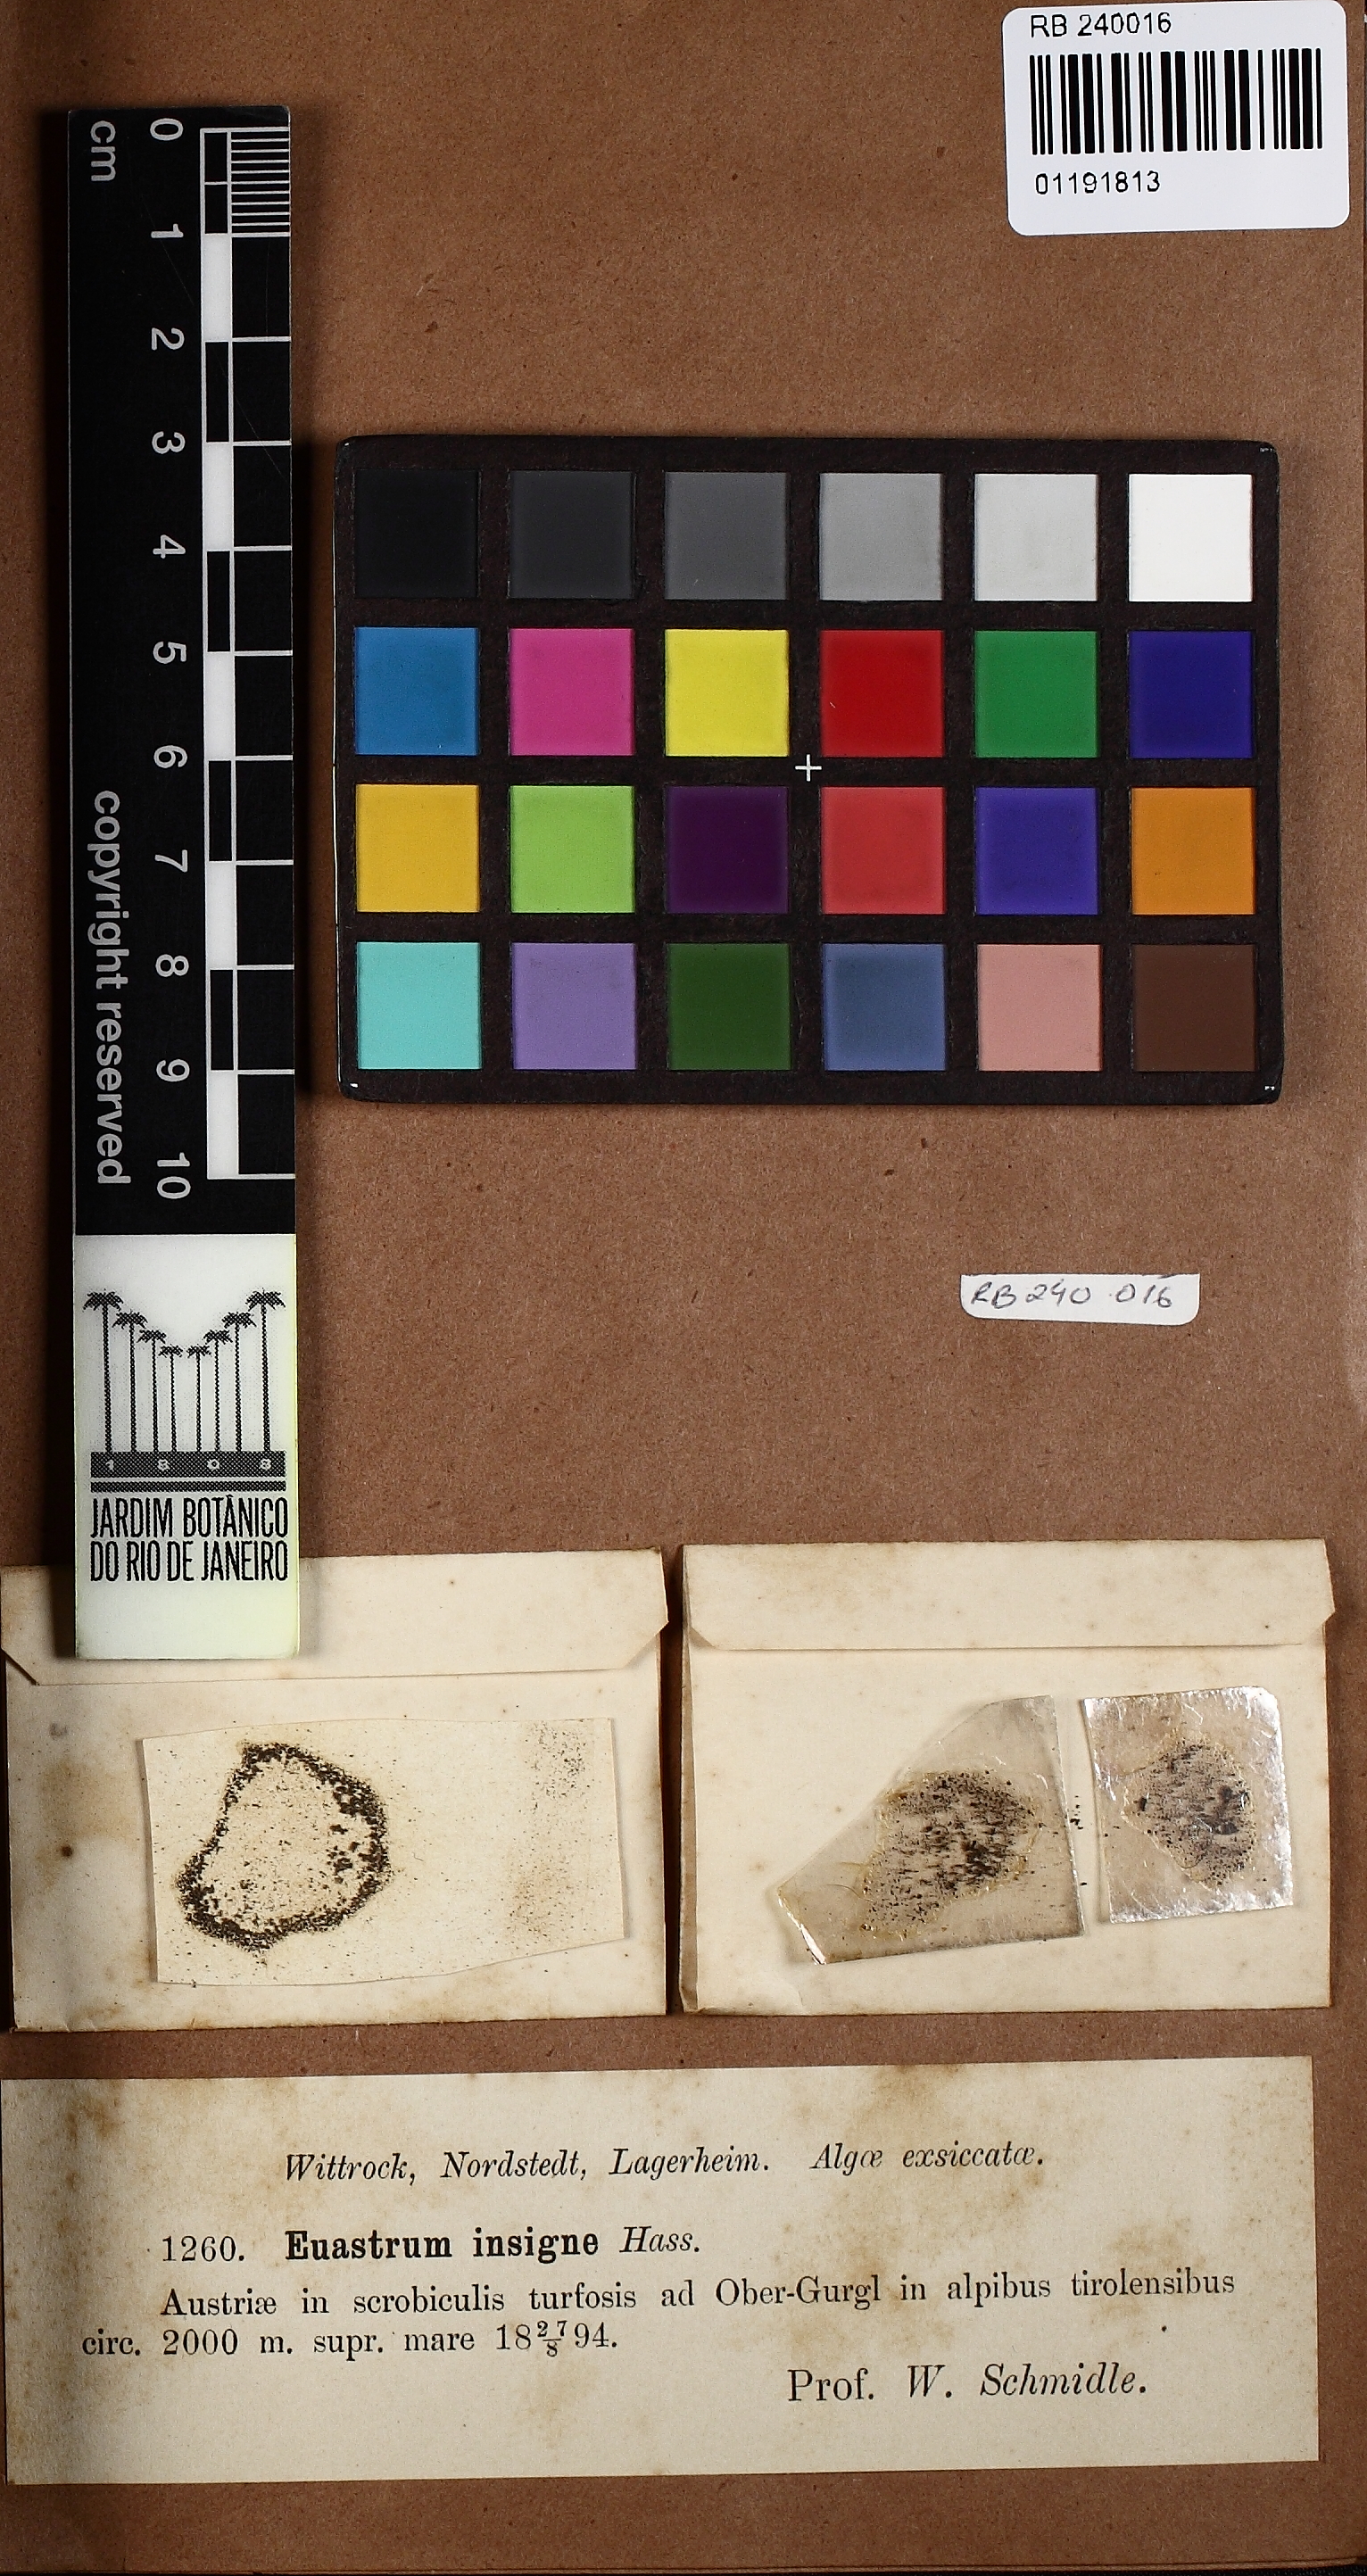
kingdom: Plantae
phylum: Charophyta
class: Conjugatophyceae
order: Desmidiales
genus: Euastrum
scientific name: Euastrum insigne
